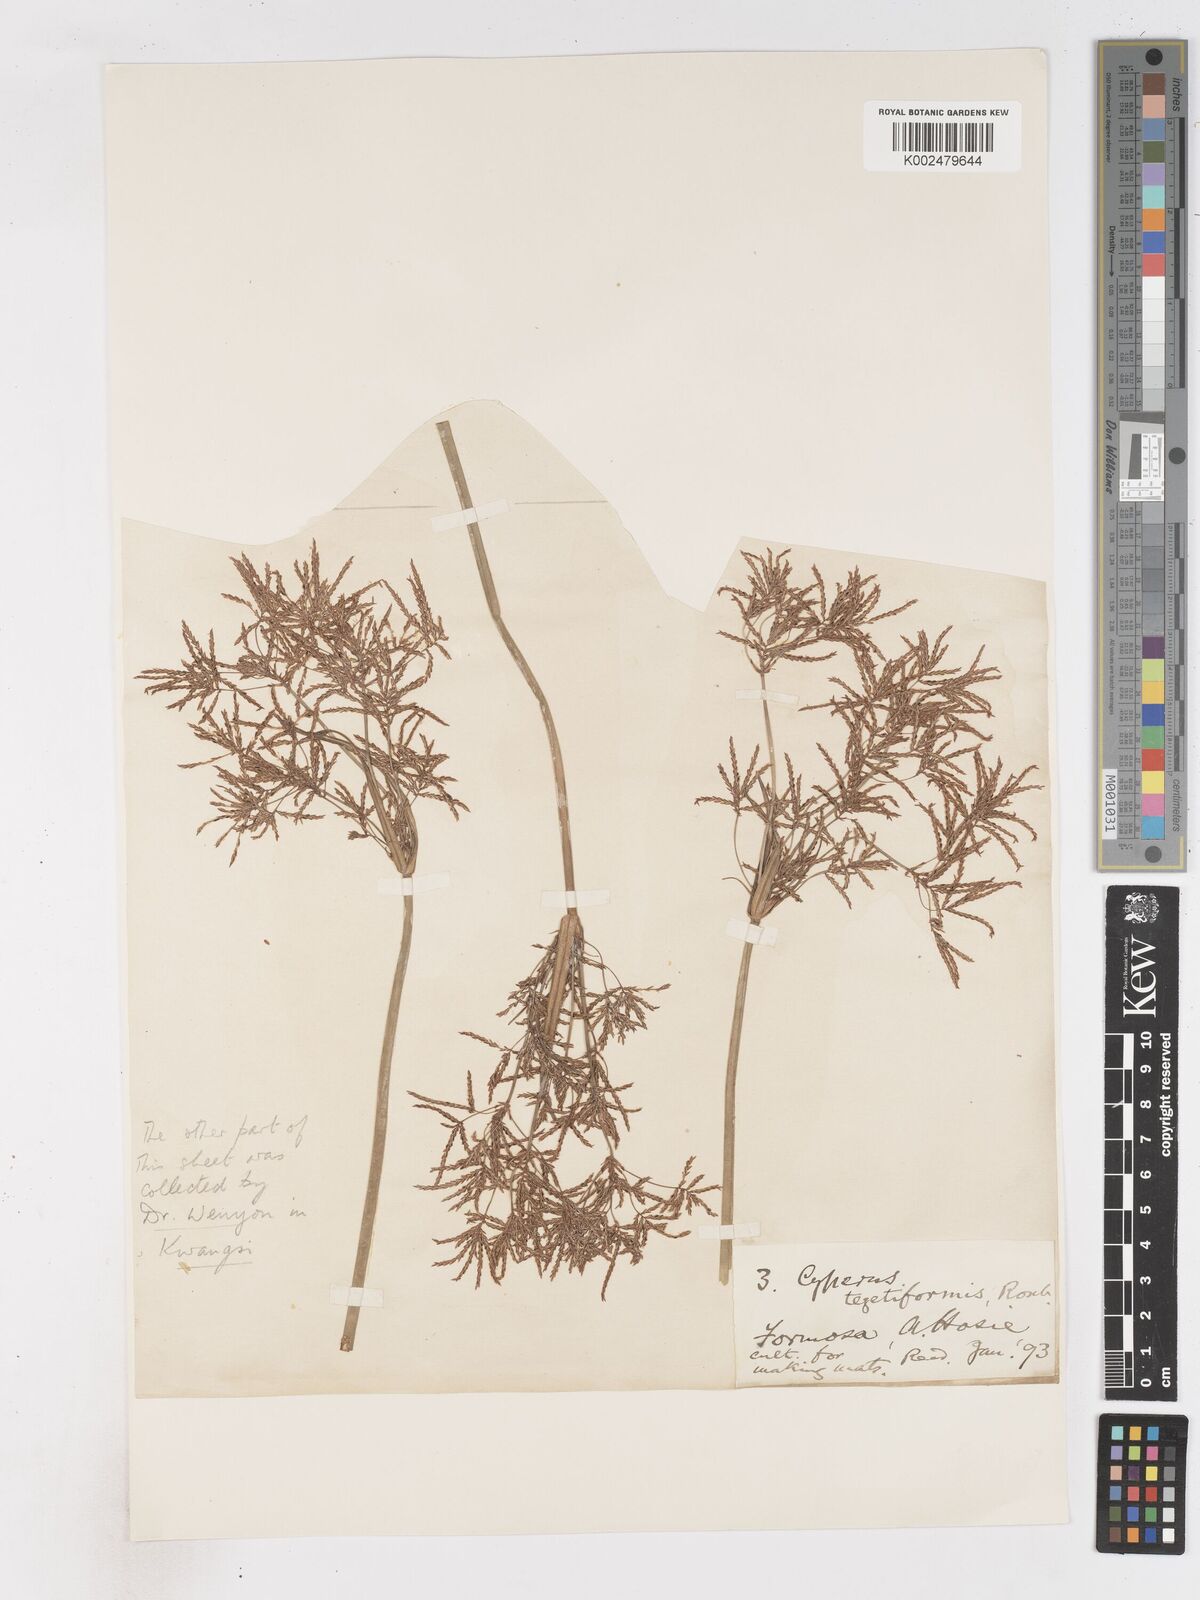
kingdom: Plantae
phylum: Tracheophyta
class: Liliopsida
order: Poales
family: Cyperaceae
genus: Cyperus
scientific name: Cyperus corymbosus
